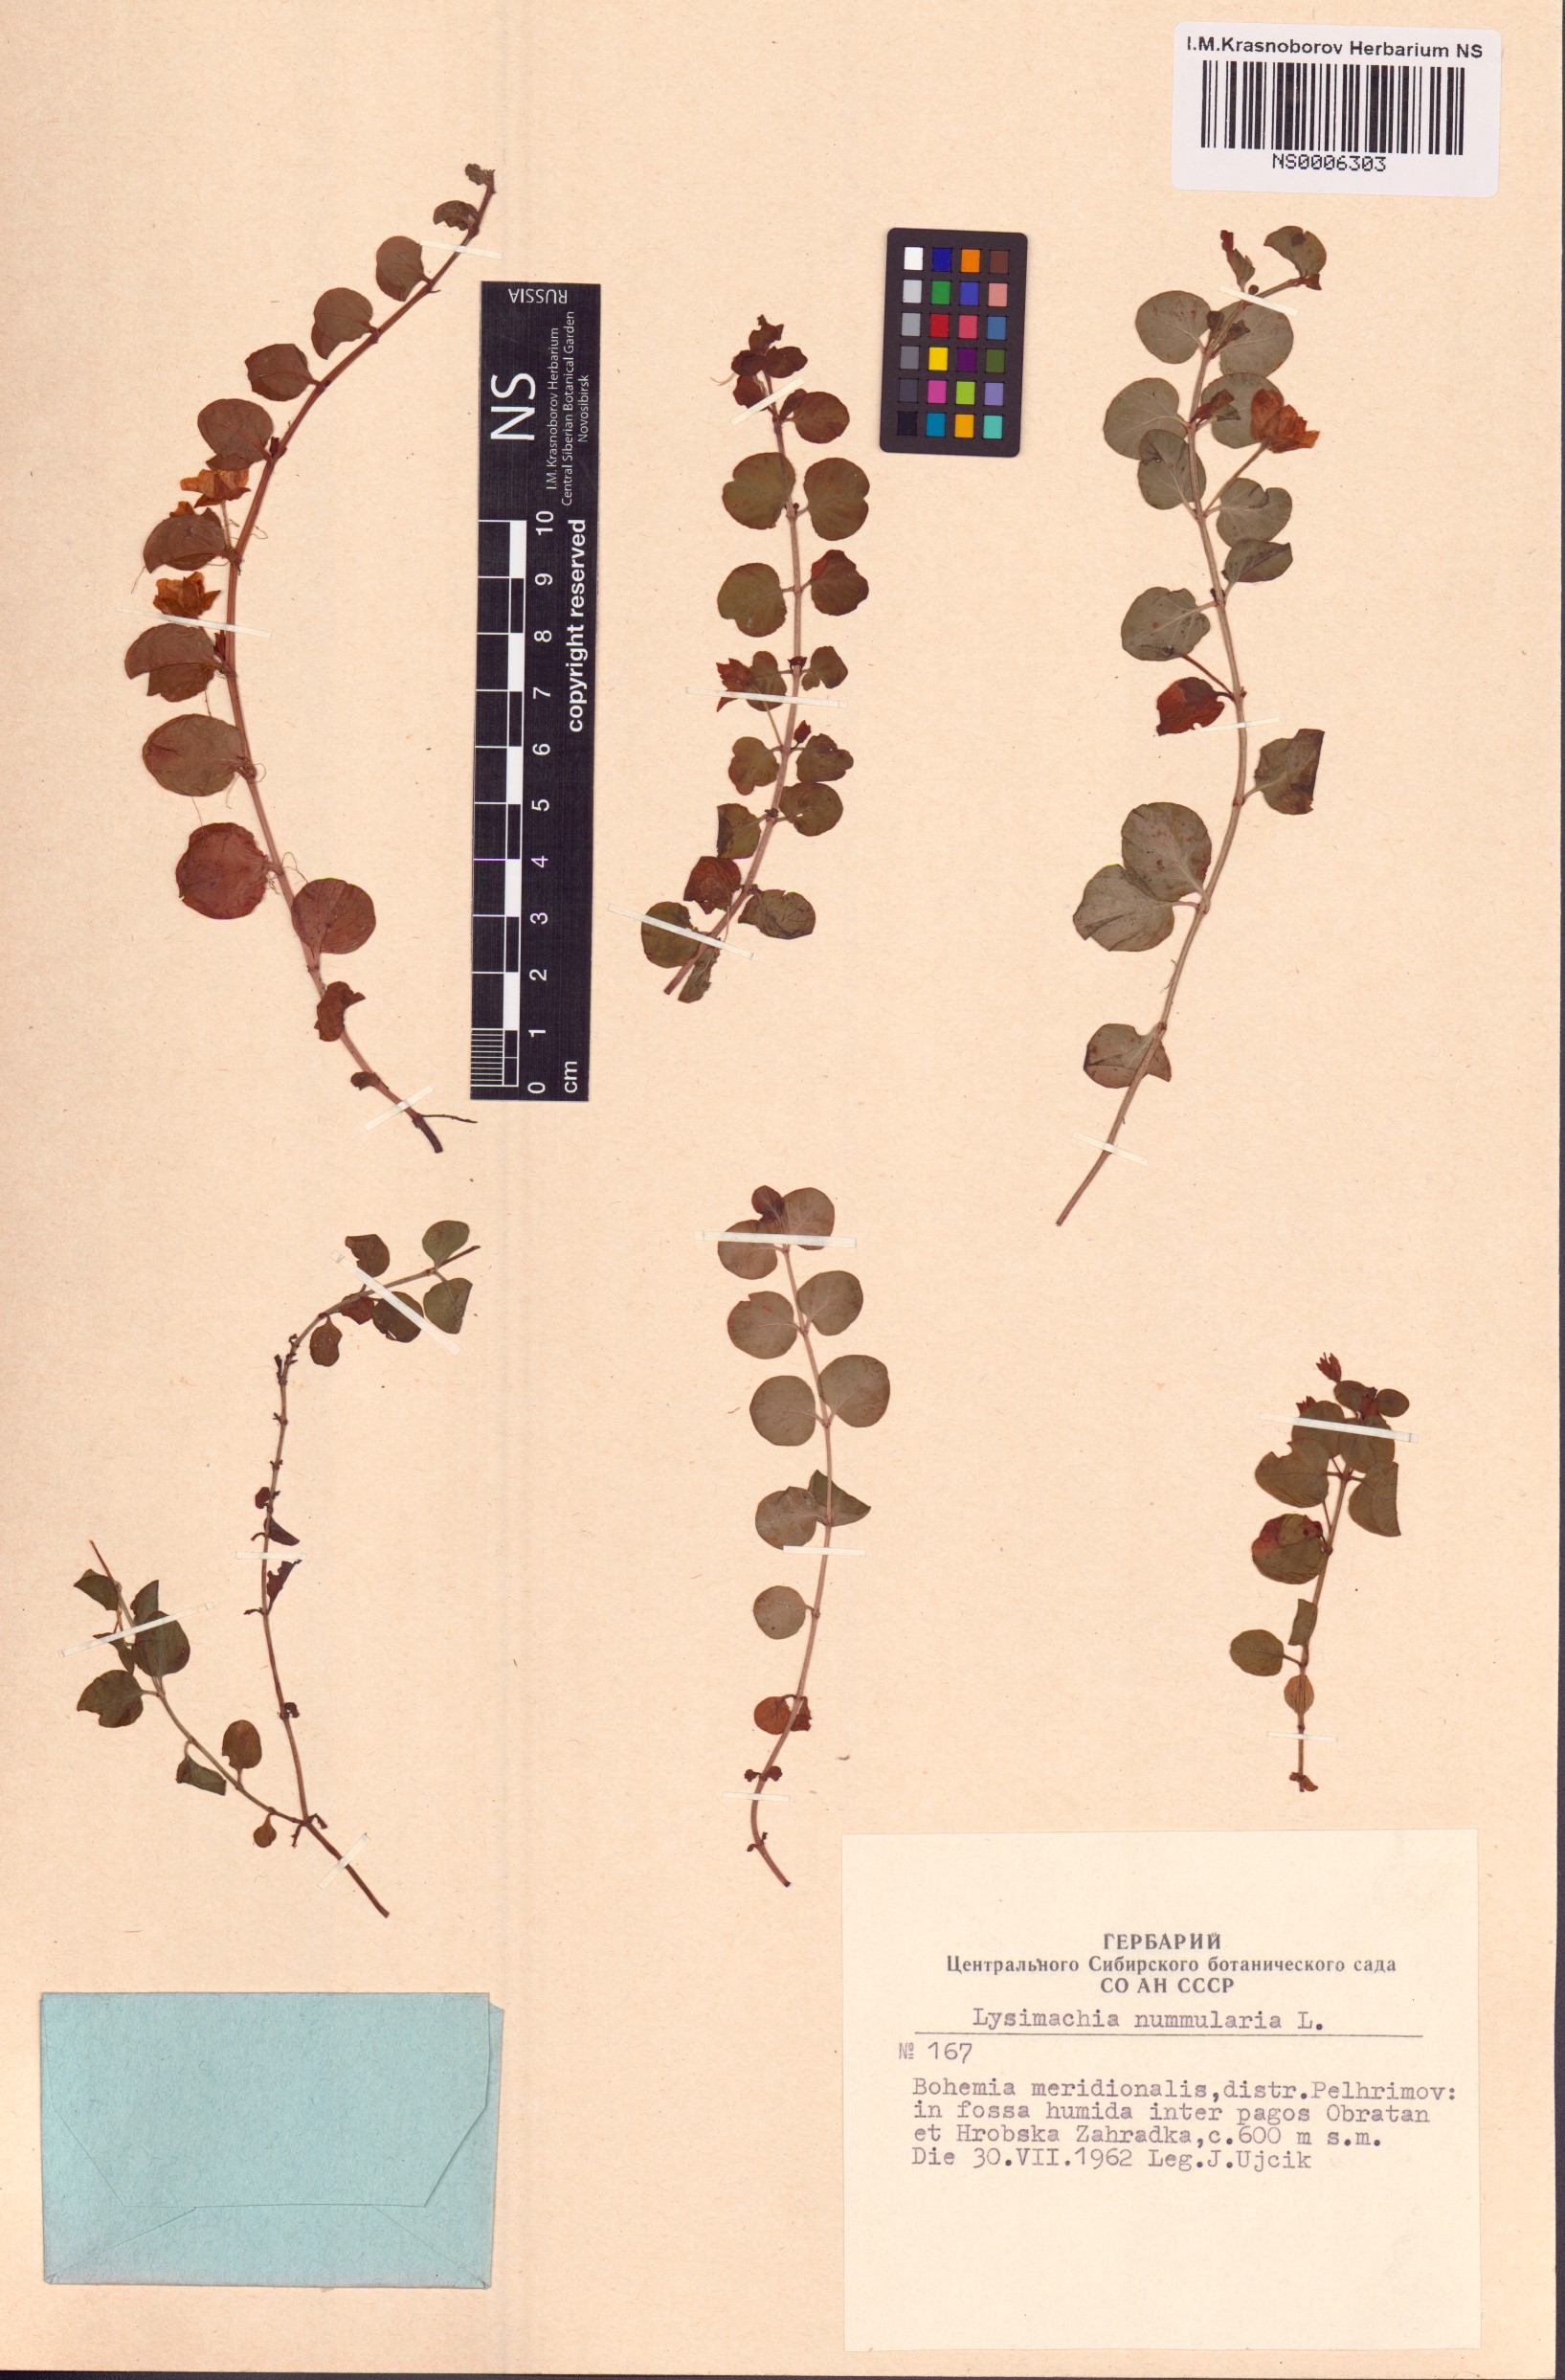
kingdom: Plantae
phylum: Tracheophyta
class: Magnoliopsida
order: Ericales
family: Primulaceae
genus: Lysimachia
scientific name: Lysimachia nummularia
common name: Moneywort
